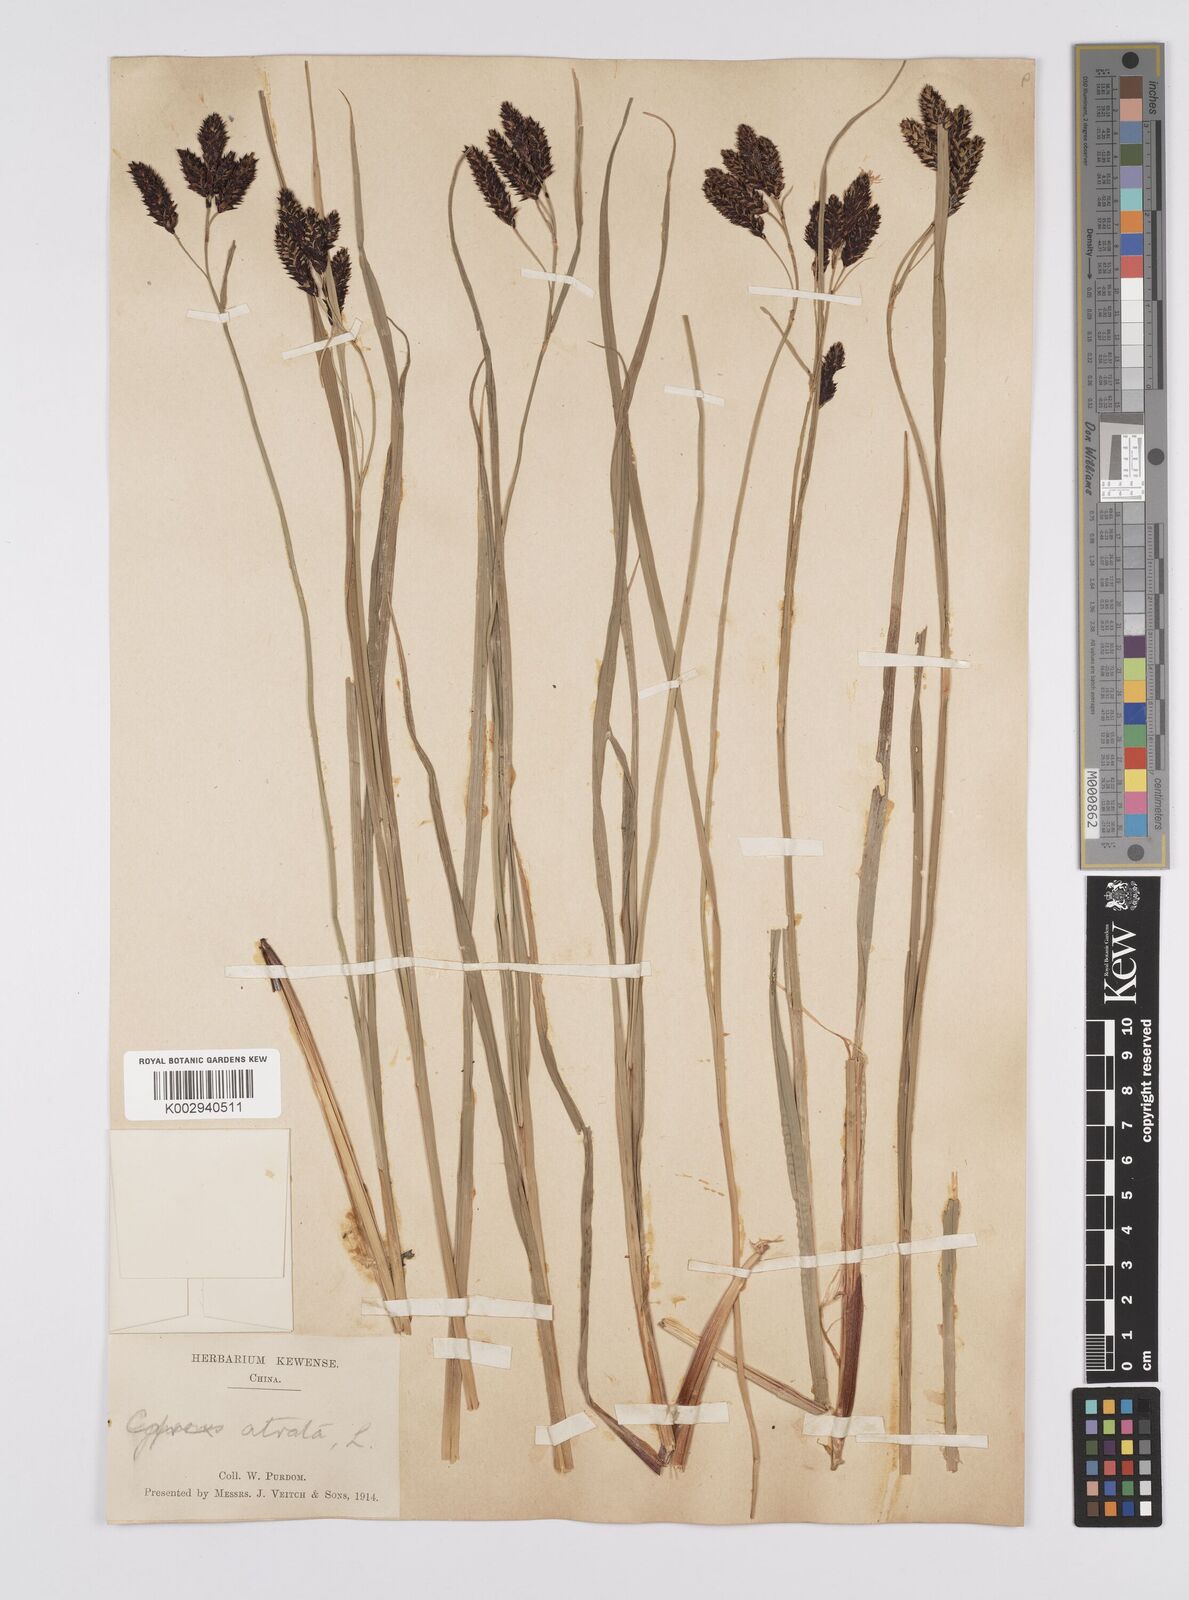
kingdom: Plantae
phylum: Tracheophyta
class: Liliopsida
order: Poales
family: Cyperaceae
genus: Carex
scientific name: Carex atrata
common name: Black alpine sedge
